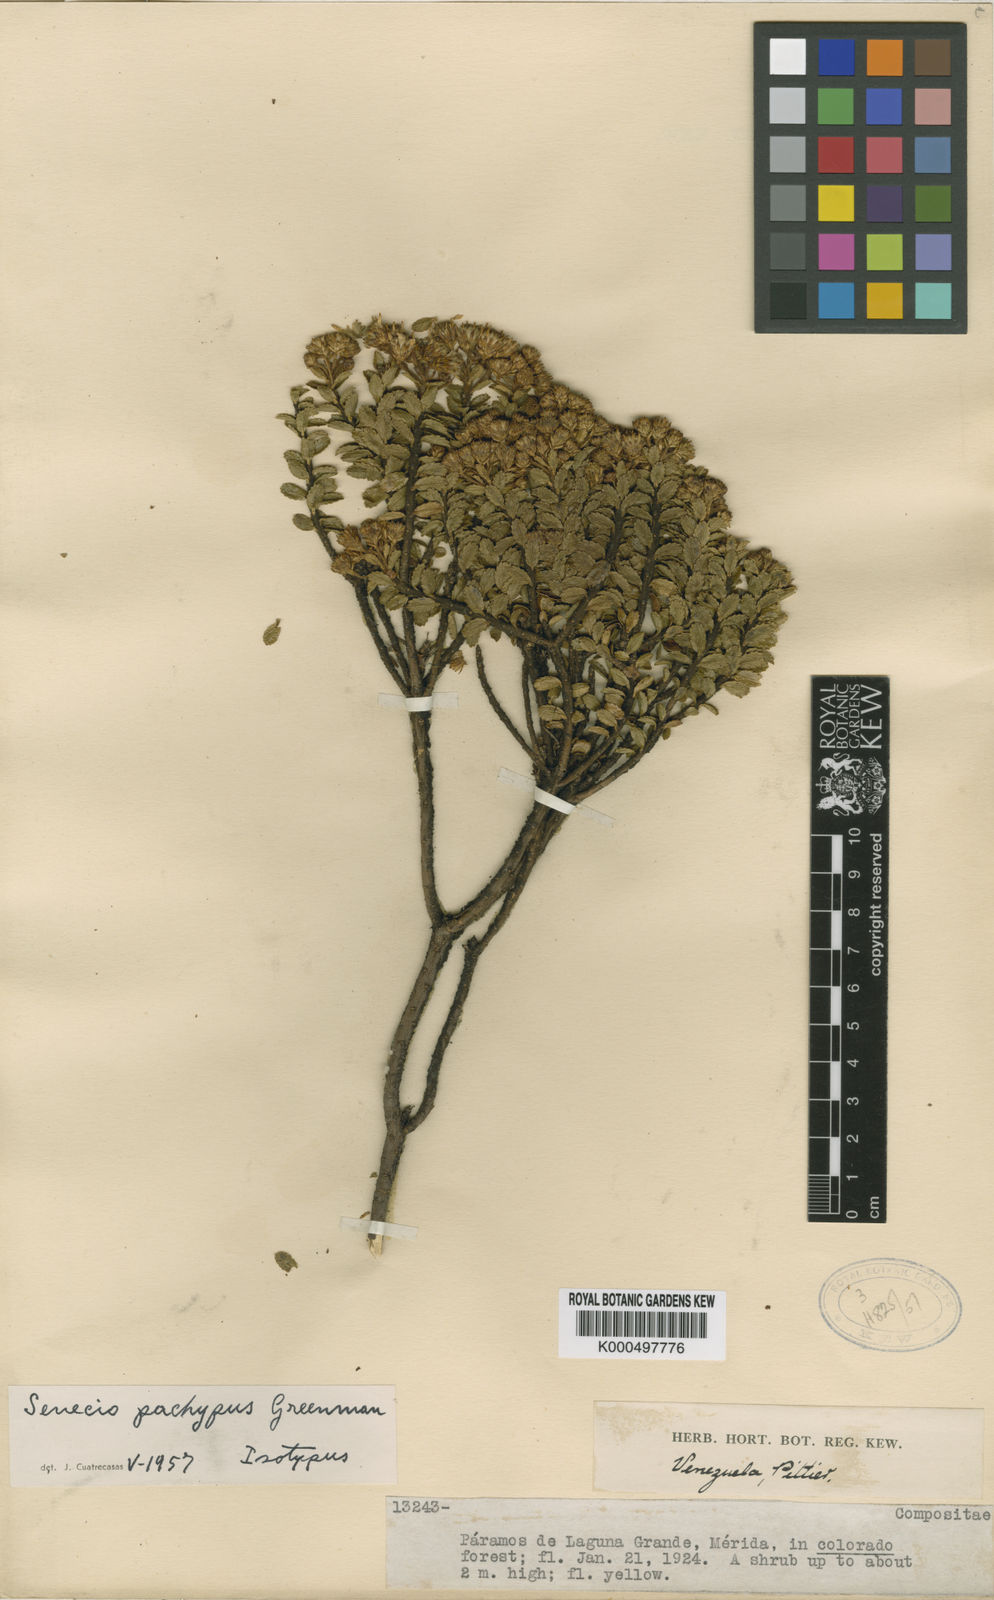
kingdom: Plantae
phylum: Tracheophyta
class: Magnoliopsida
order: Asterales
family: Asteraceae
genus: Monticalia
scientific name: Monticalia pachypus
